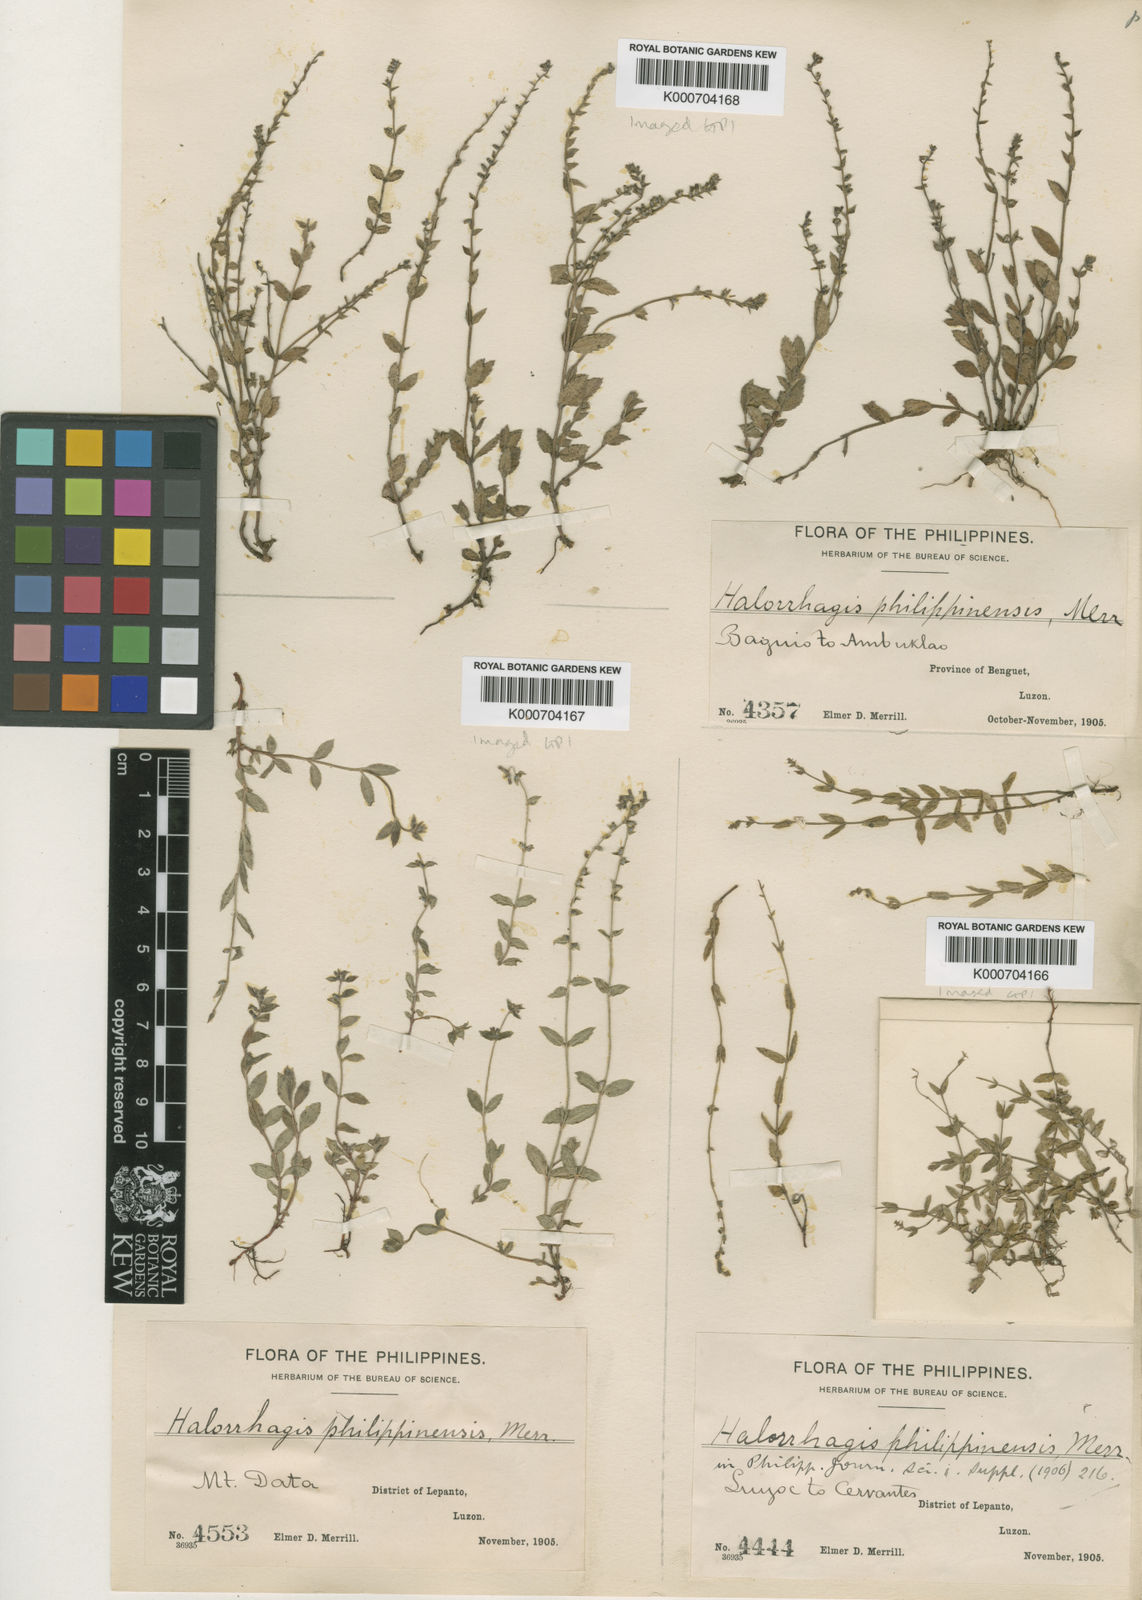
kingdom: Plantae
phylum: Tracheophyta
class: Magnoliopsida
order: Saxifragales
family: Haloragaceae
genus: Gonocarpus
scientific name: Gonocarpus philippinensis
